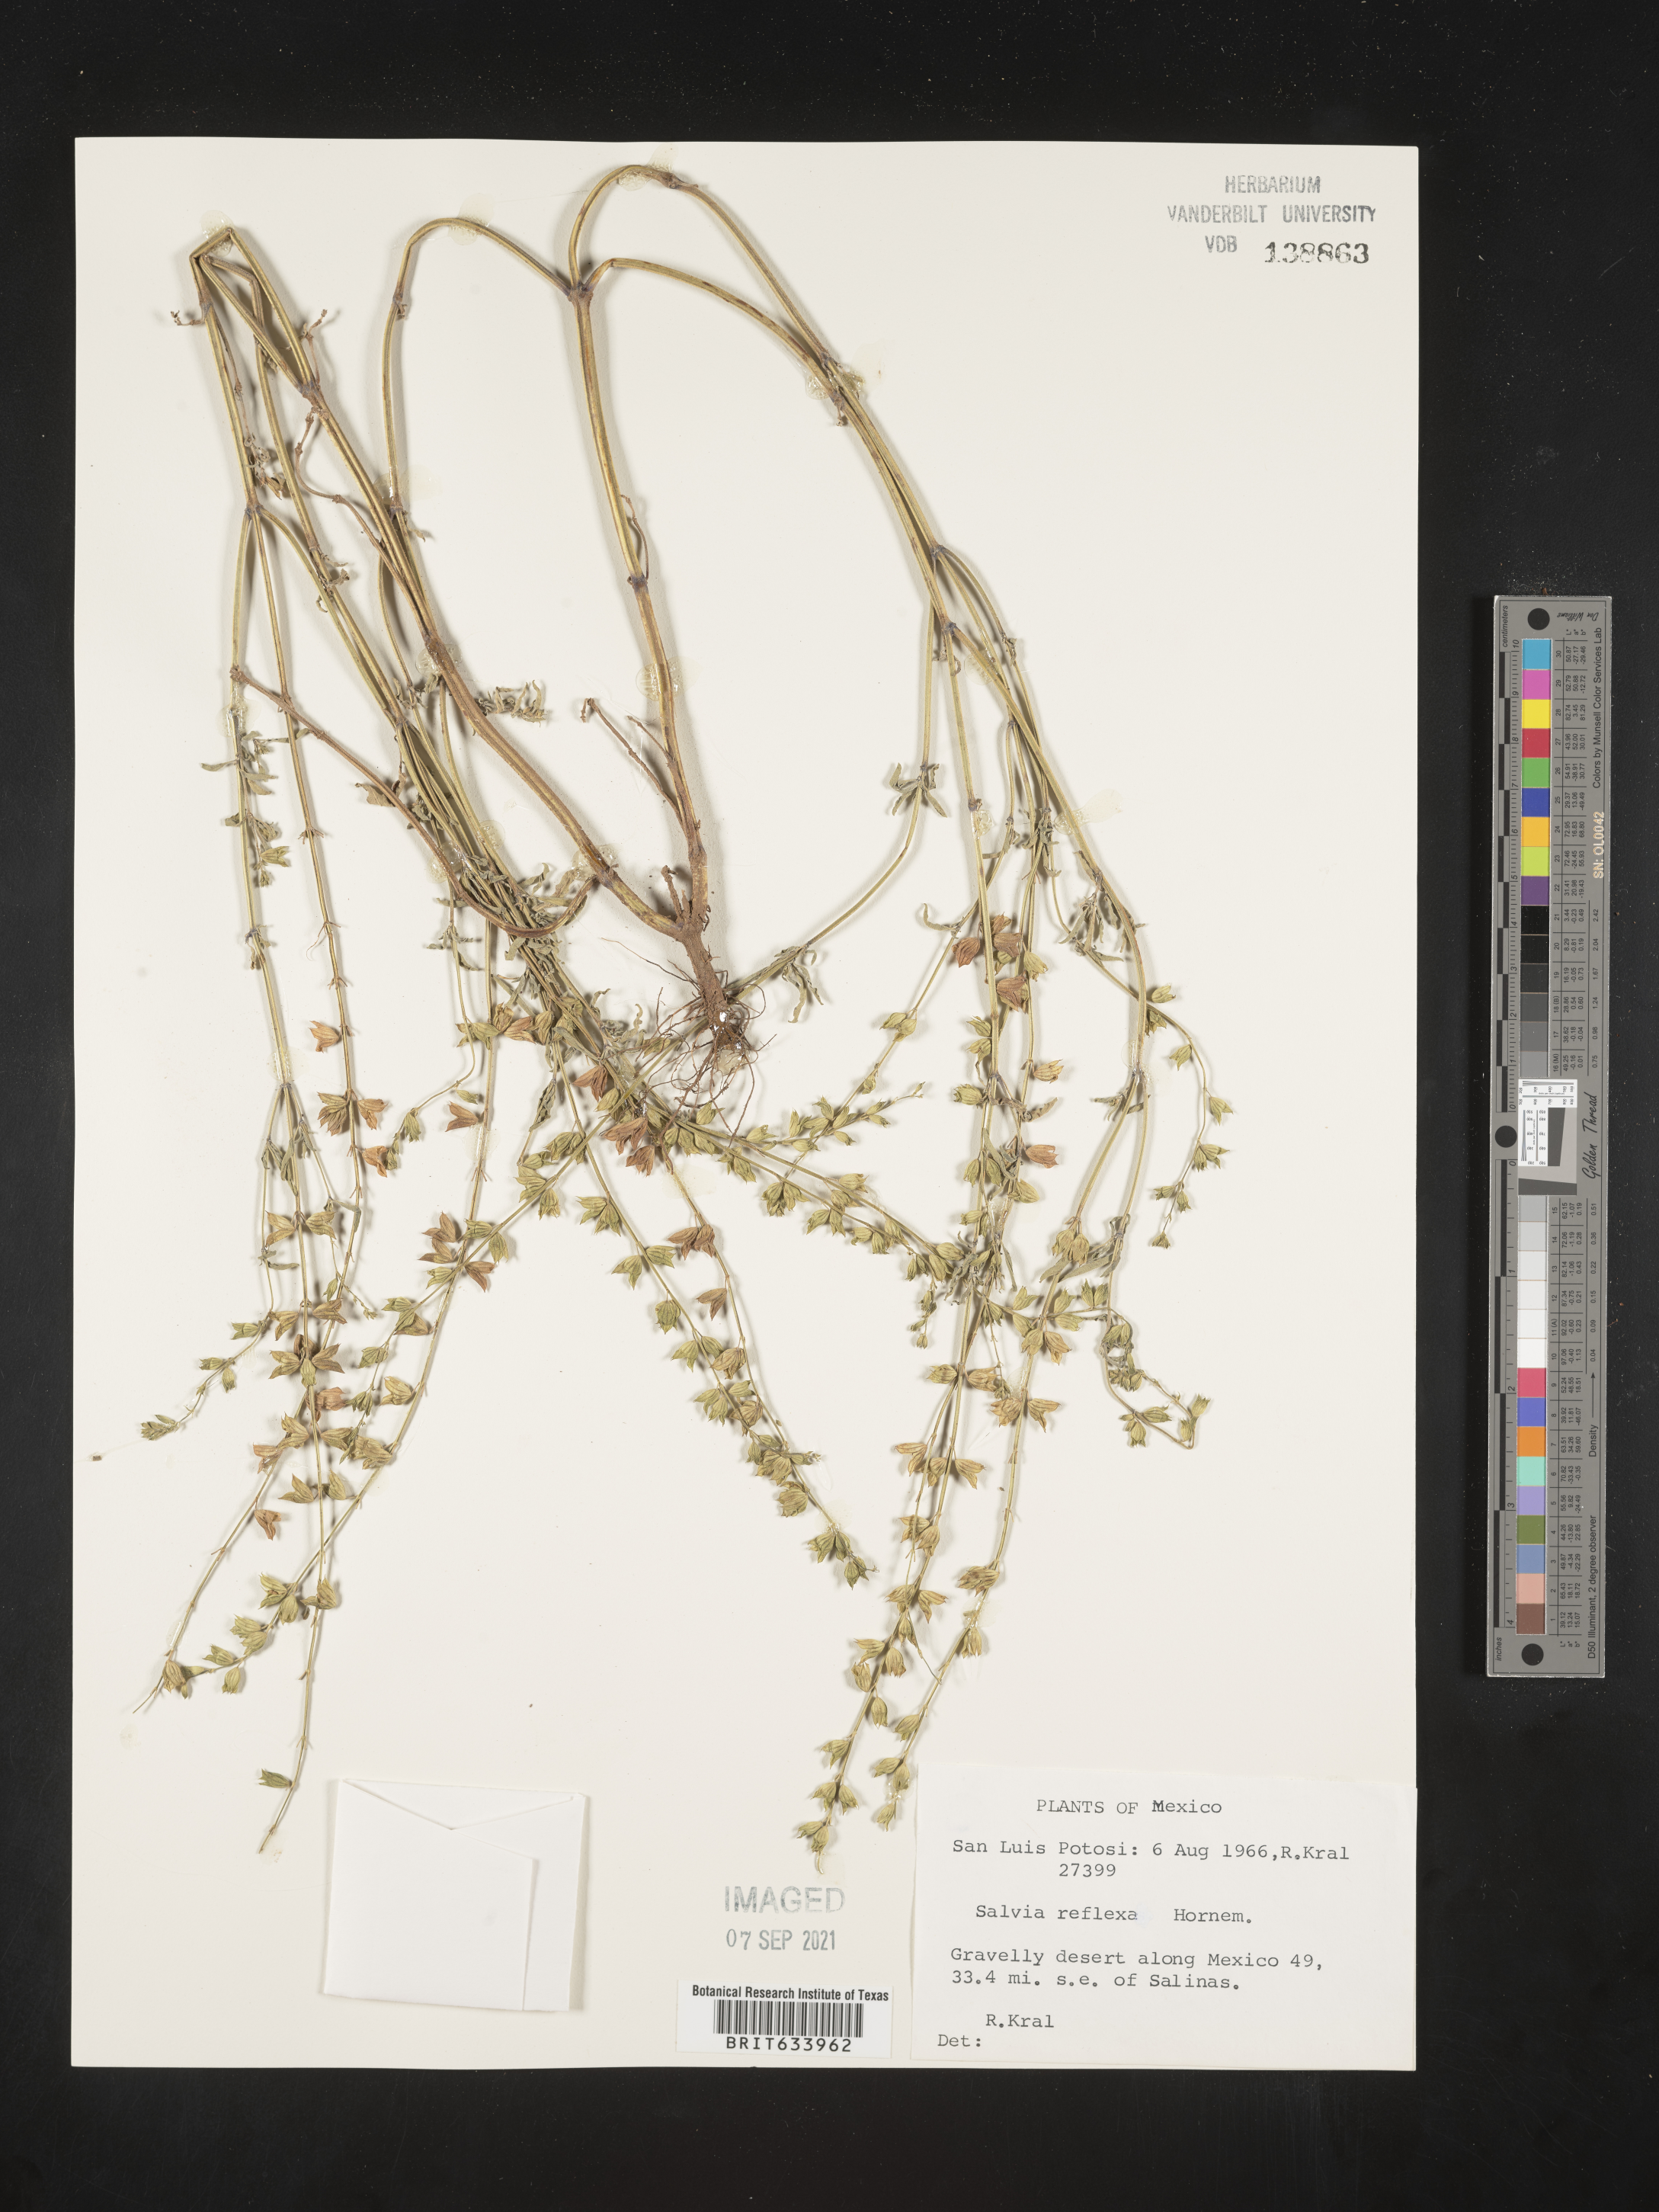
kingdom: Plantae
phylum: Tracheophyta
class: Magnoliopsida
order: Lamiales
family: Lamiaceae
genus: Salvia
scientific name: Salvia
